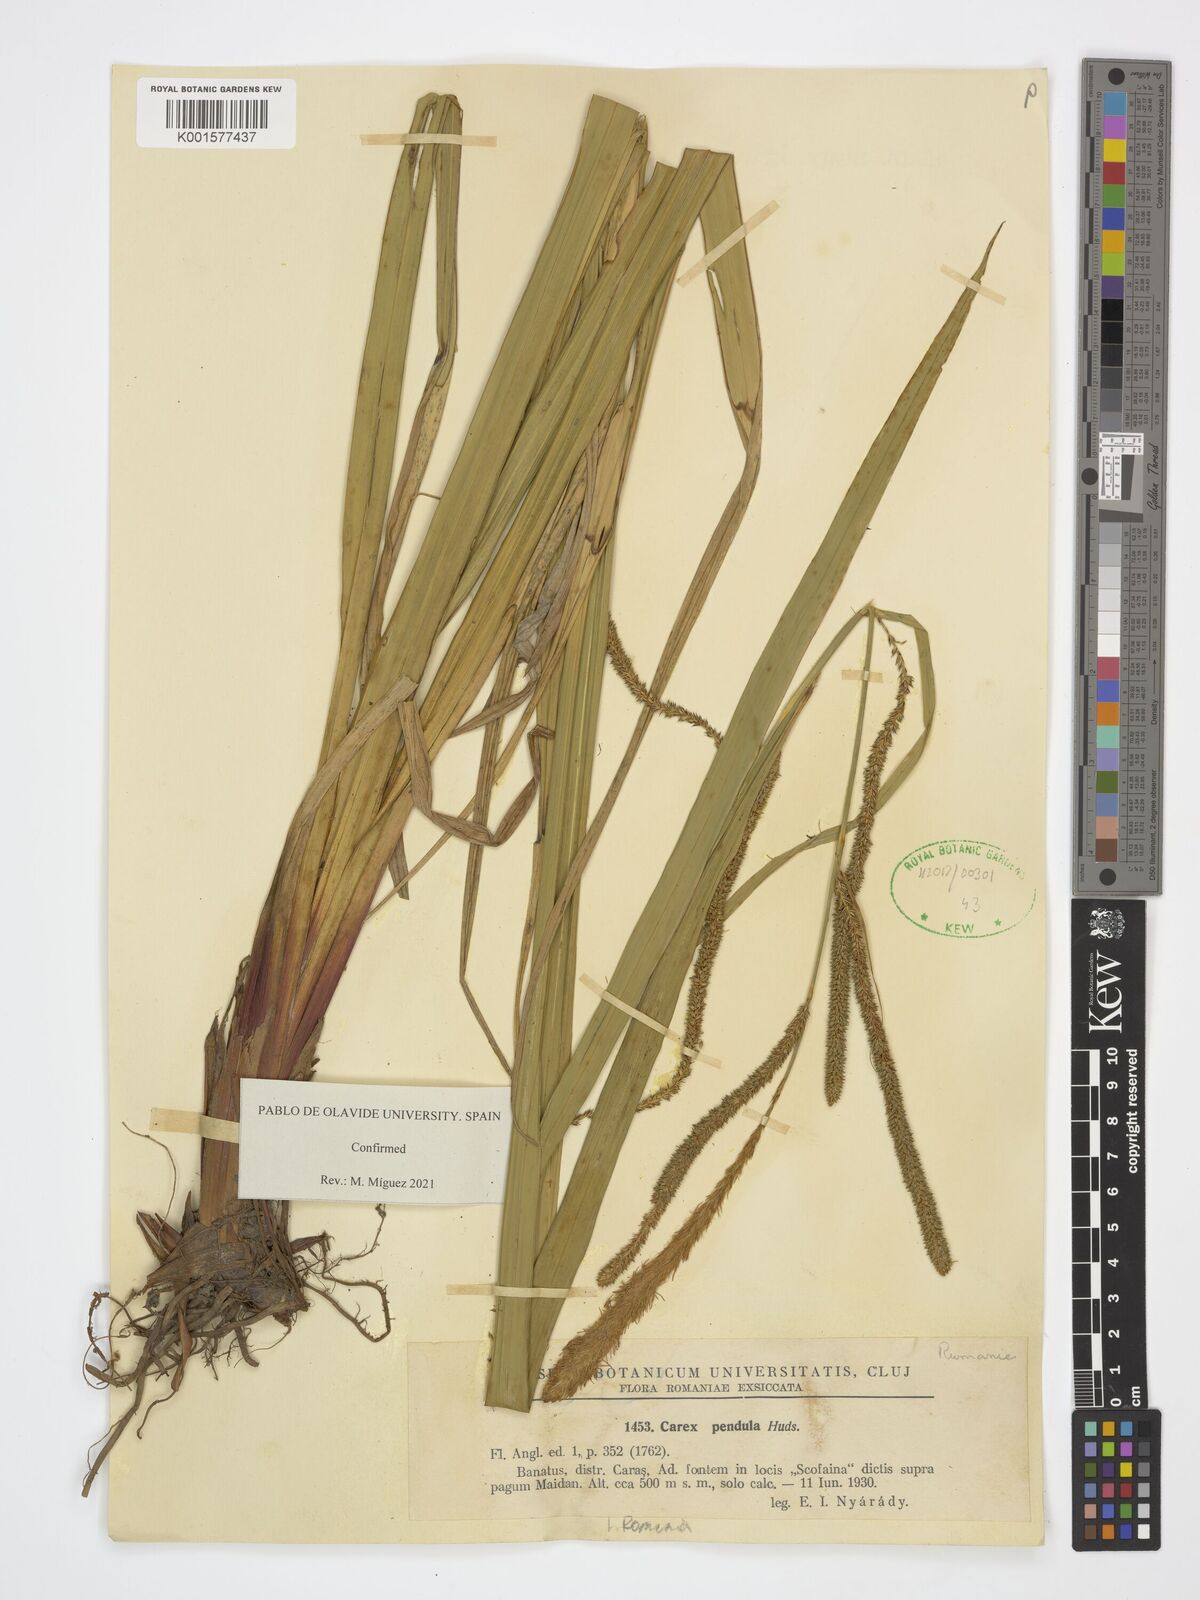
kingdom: Plantae
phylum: Tracheophyta
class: Liliopsida
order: Poales
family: Cyperaceae
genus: Carex
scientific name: Carex pendula
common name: Pendulous sedge
